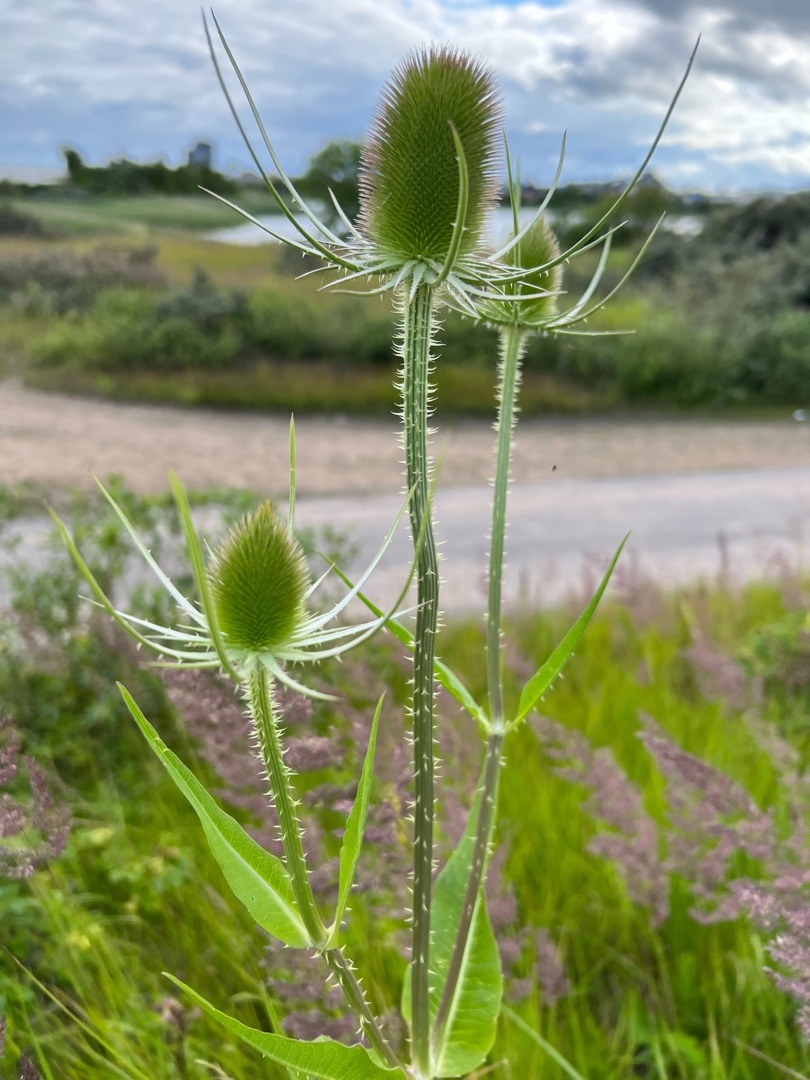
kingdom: Plantae
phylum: Tracheophyta
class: Magnoliopsida
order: Dipsacales
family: Caprifoliaceae
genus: Dipsacus
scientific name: Dipsacus fullonum
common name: Gærde-kartebolle
